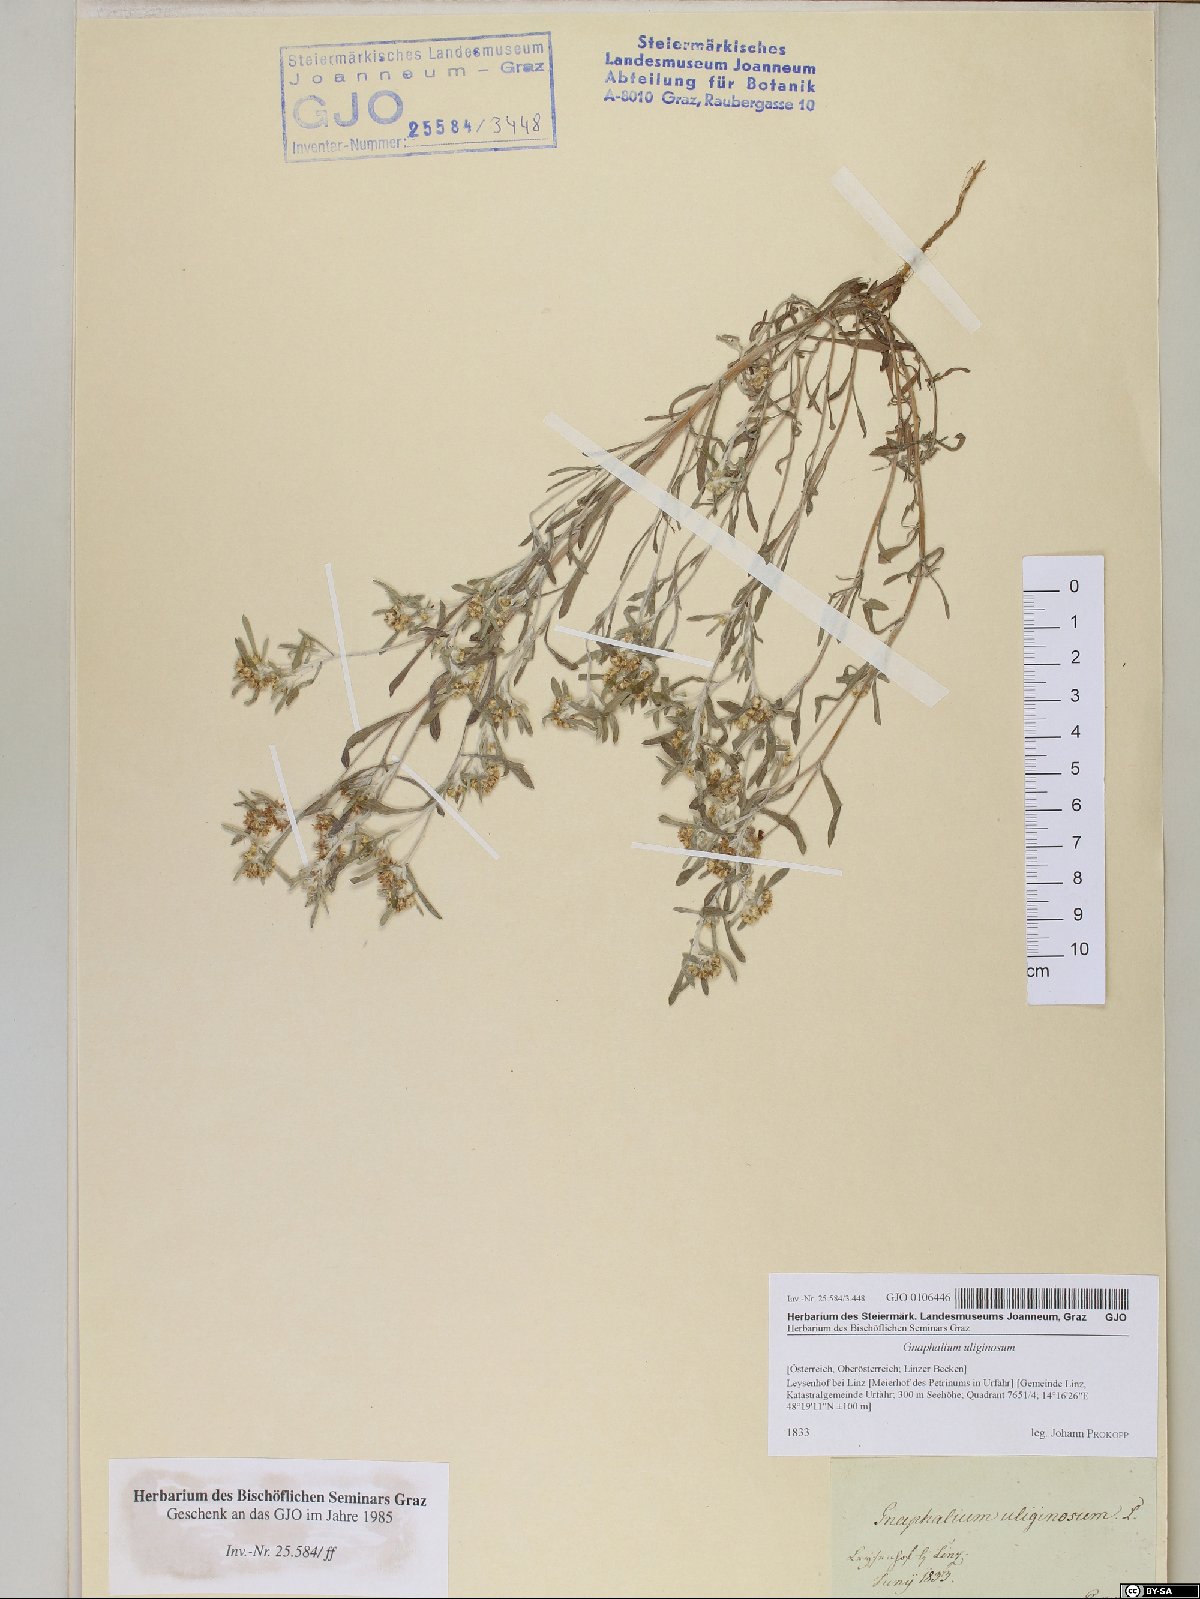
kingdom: Plantae
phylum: Tracheophyta
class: Magnoliopsida
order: Asterales
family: Asteraceae
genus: Gnaphalium
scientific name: Gnaphalium uliginosum
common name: Marsh cudweed
